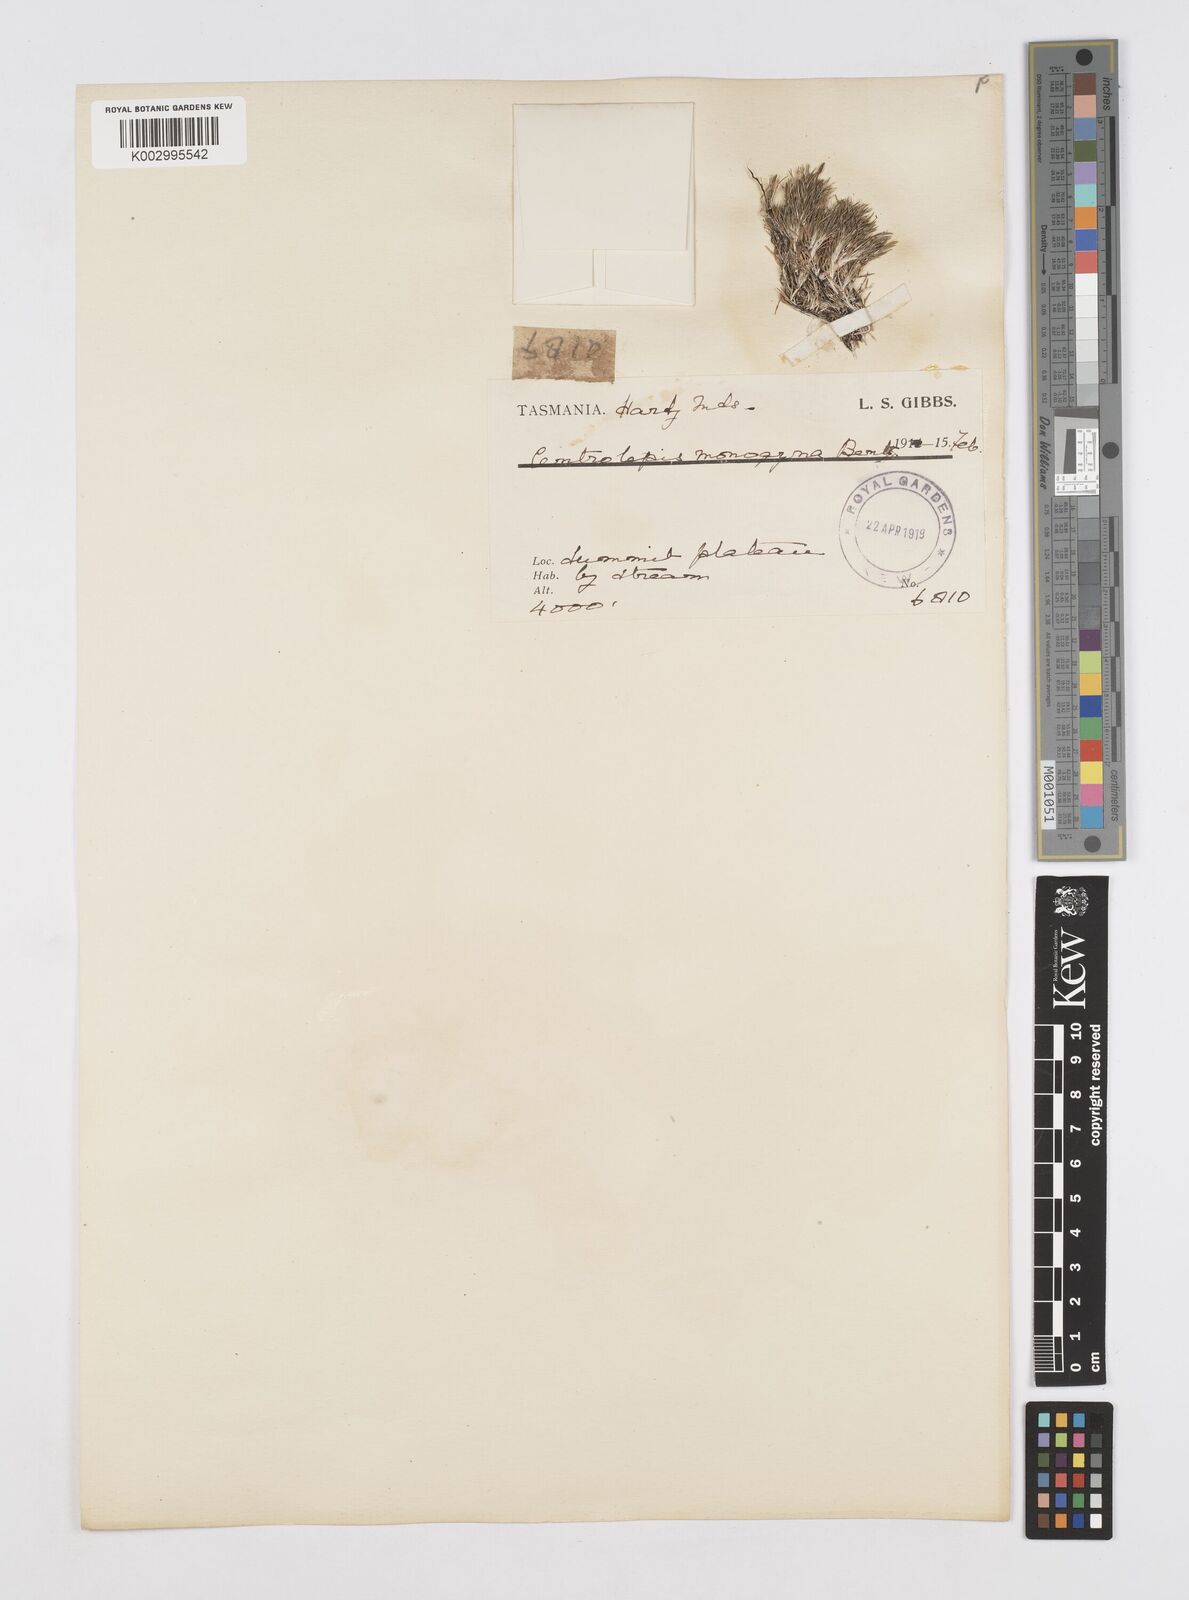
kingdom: Plantae
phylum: Tracheophyta
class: Liliopsida
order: Poales
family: Restionaceae
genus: Centrolepis
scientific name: Centrolepis monogyna
